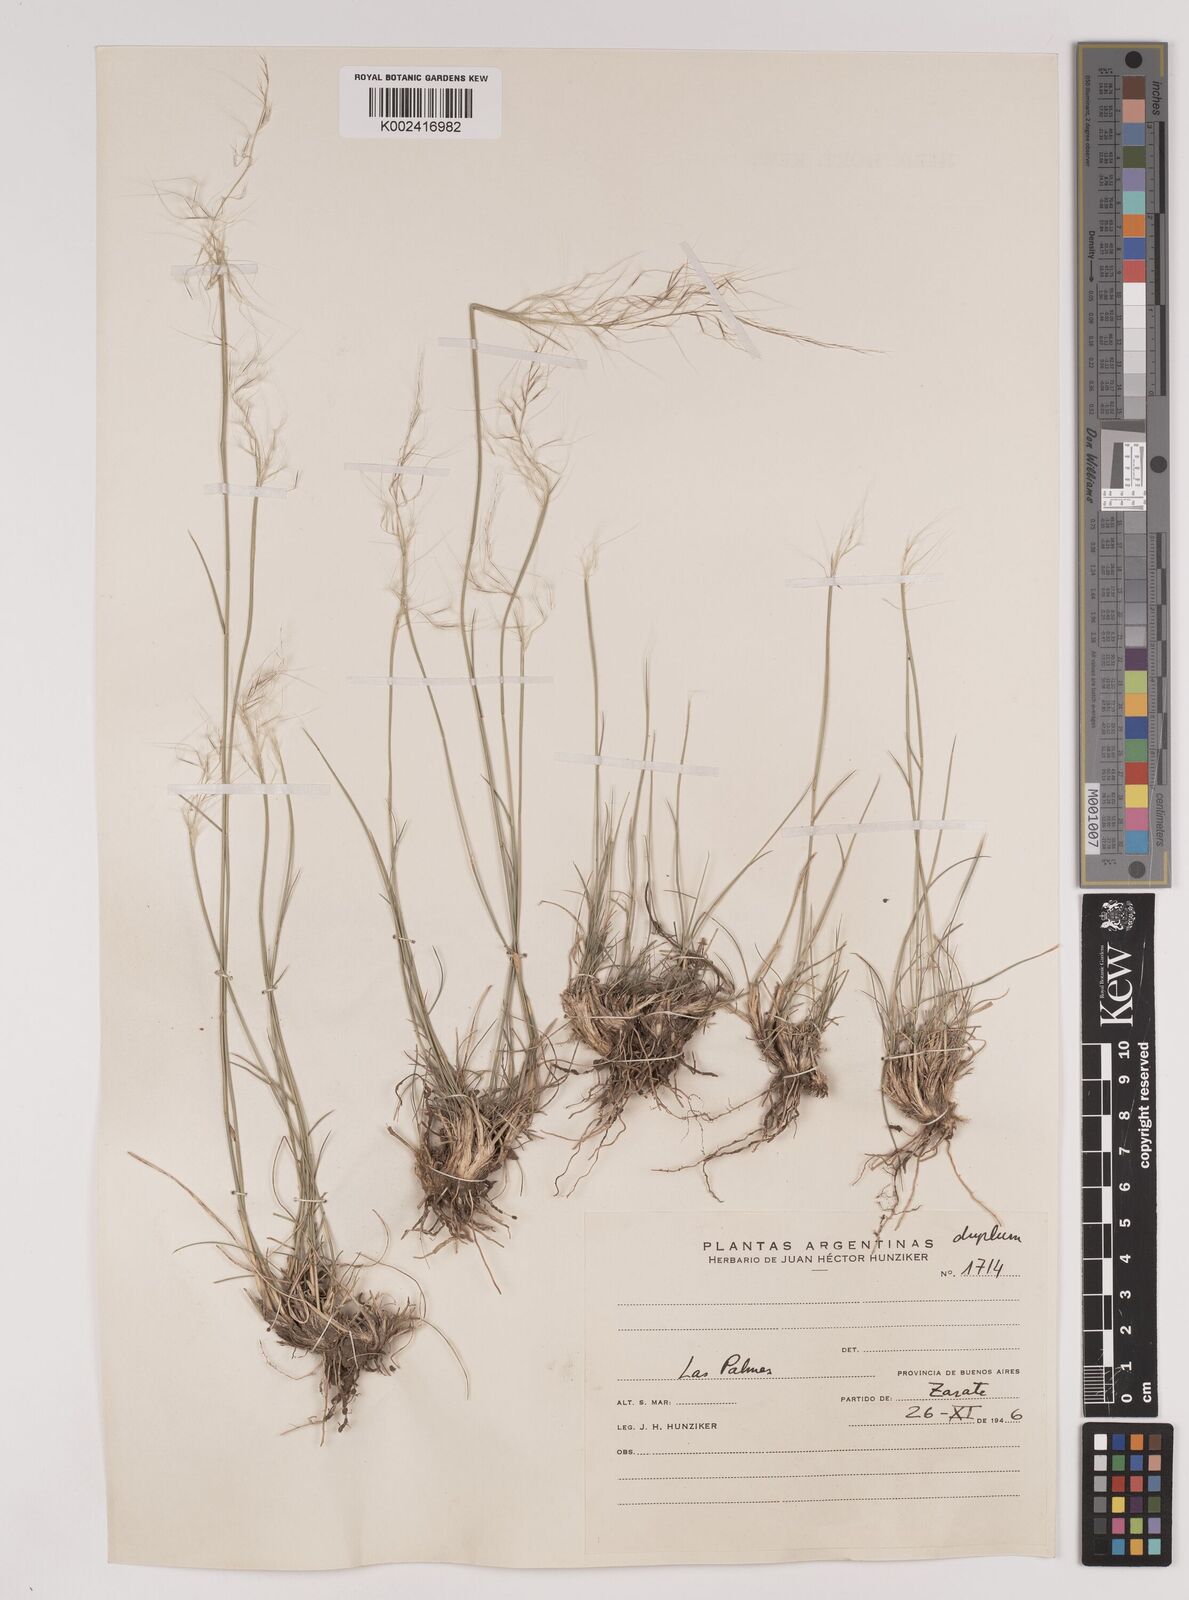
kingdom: Plantae
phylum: Tracheophyta
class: Liliopsida
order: Poales
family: Poaceae
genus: Jarava
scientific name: Jarava plumosa
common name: South american rice grass
